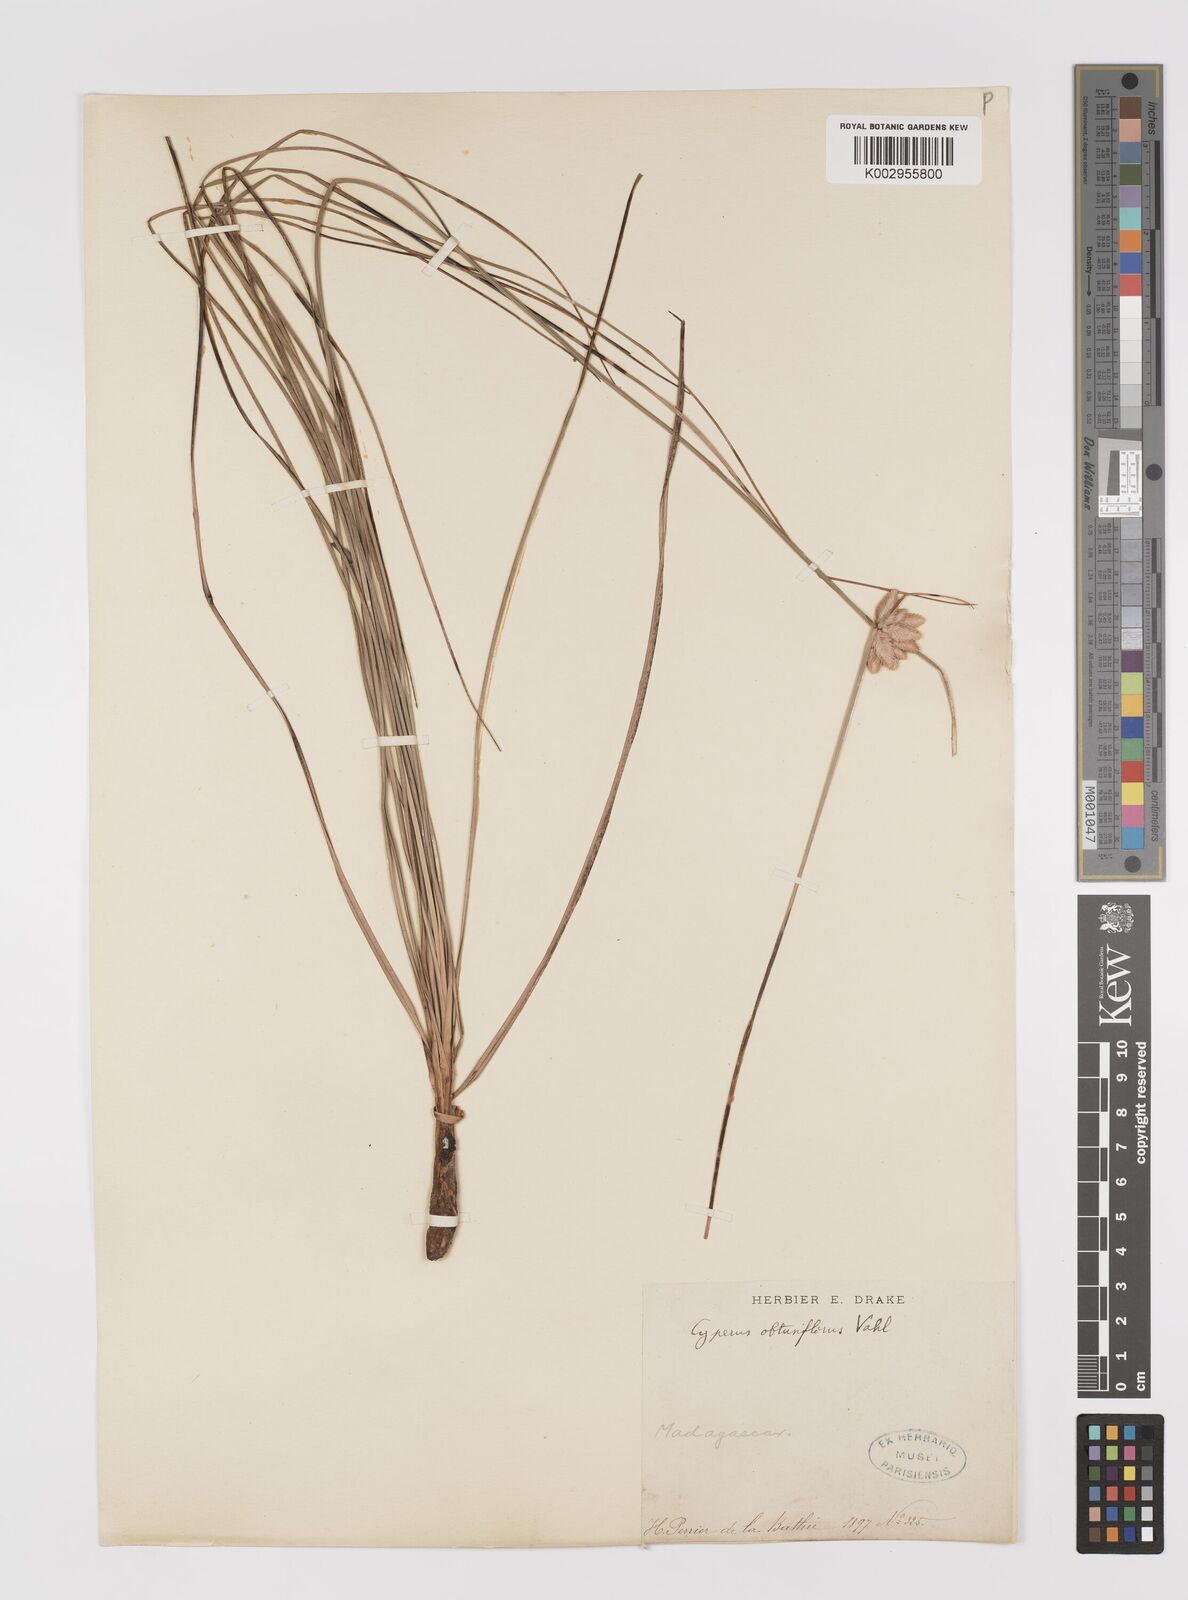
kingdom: Plantae
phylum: Tracheophyta
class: Liliopsida
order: Poales
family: Cyperaceae
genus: Cyperus
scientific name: Cyperus niveus
